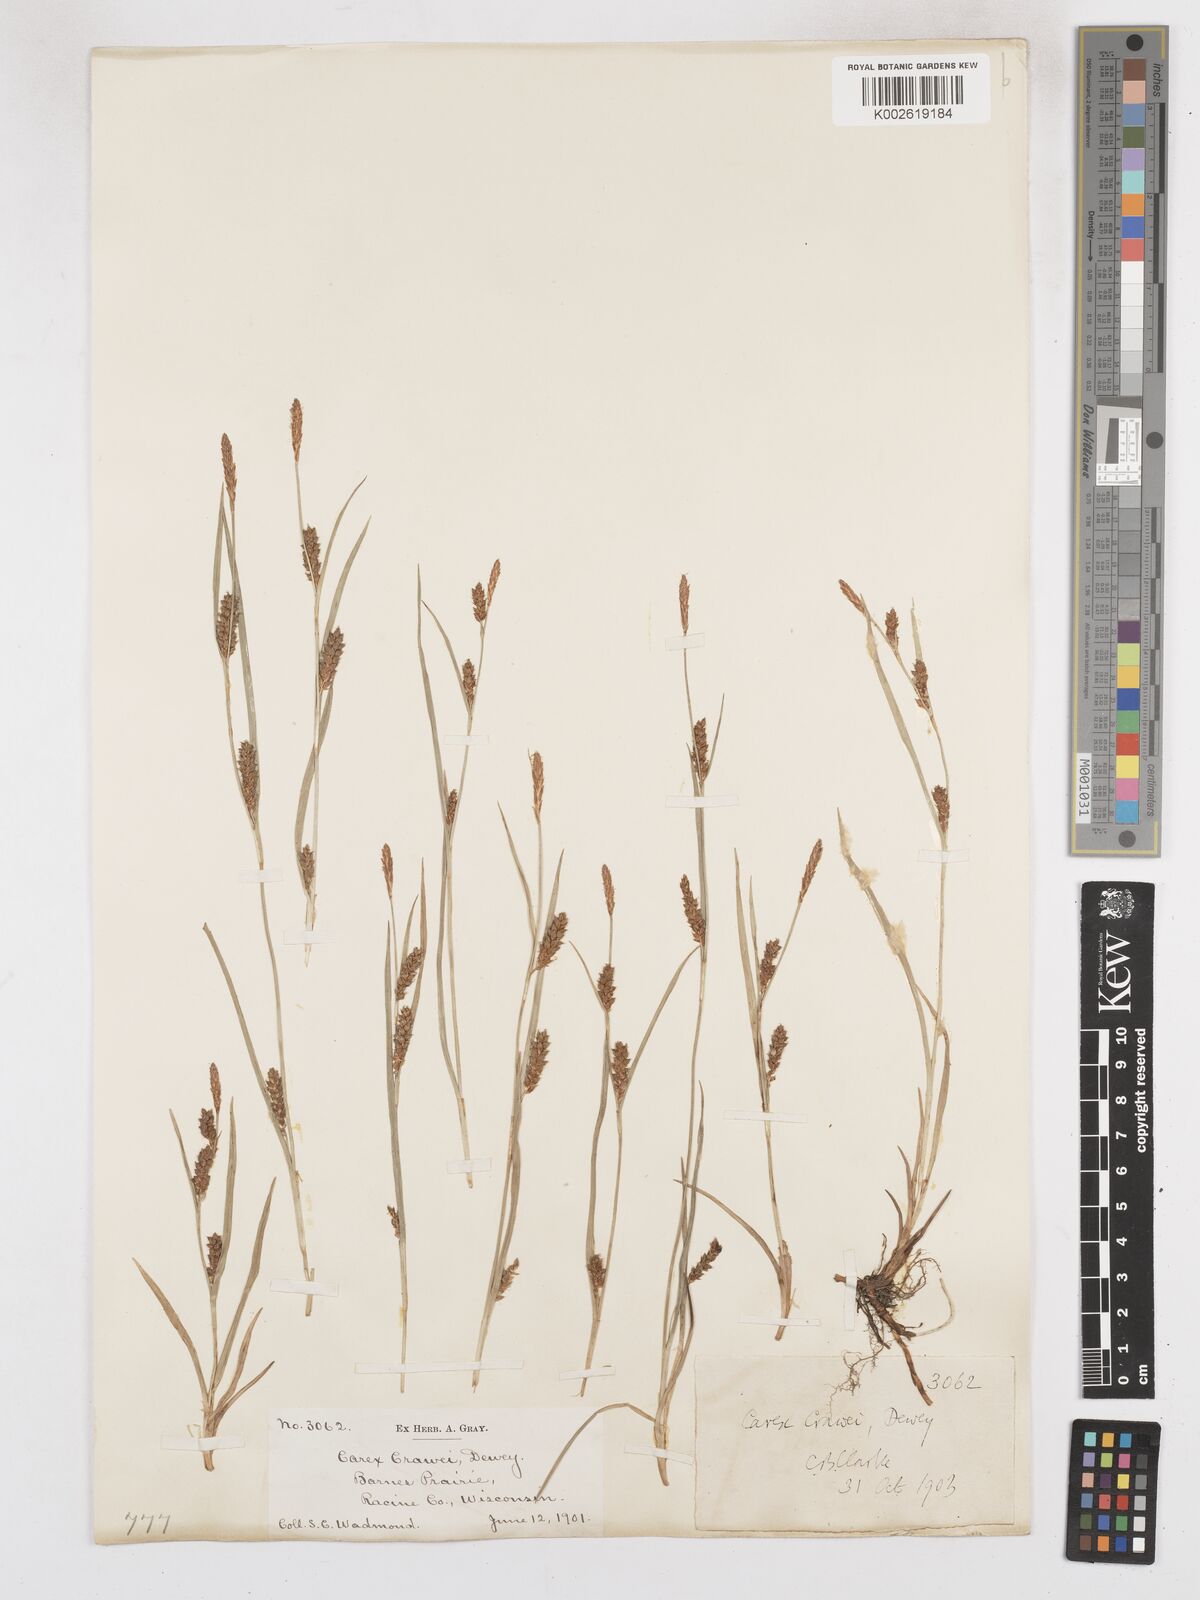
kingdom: Plantae
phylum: Tracheophyta
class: Liliopsida
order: Poales
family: Cyperaceae
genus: Carex
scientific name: Carex crawei
